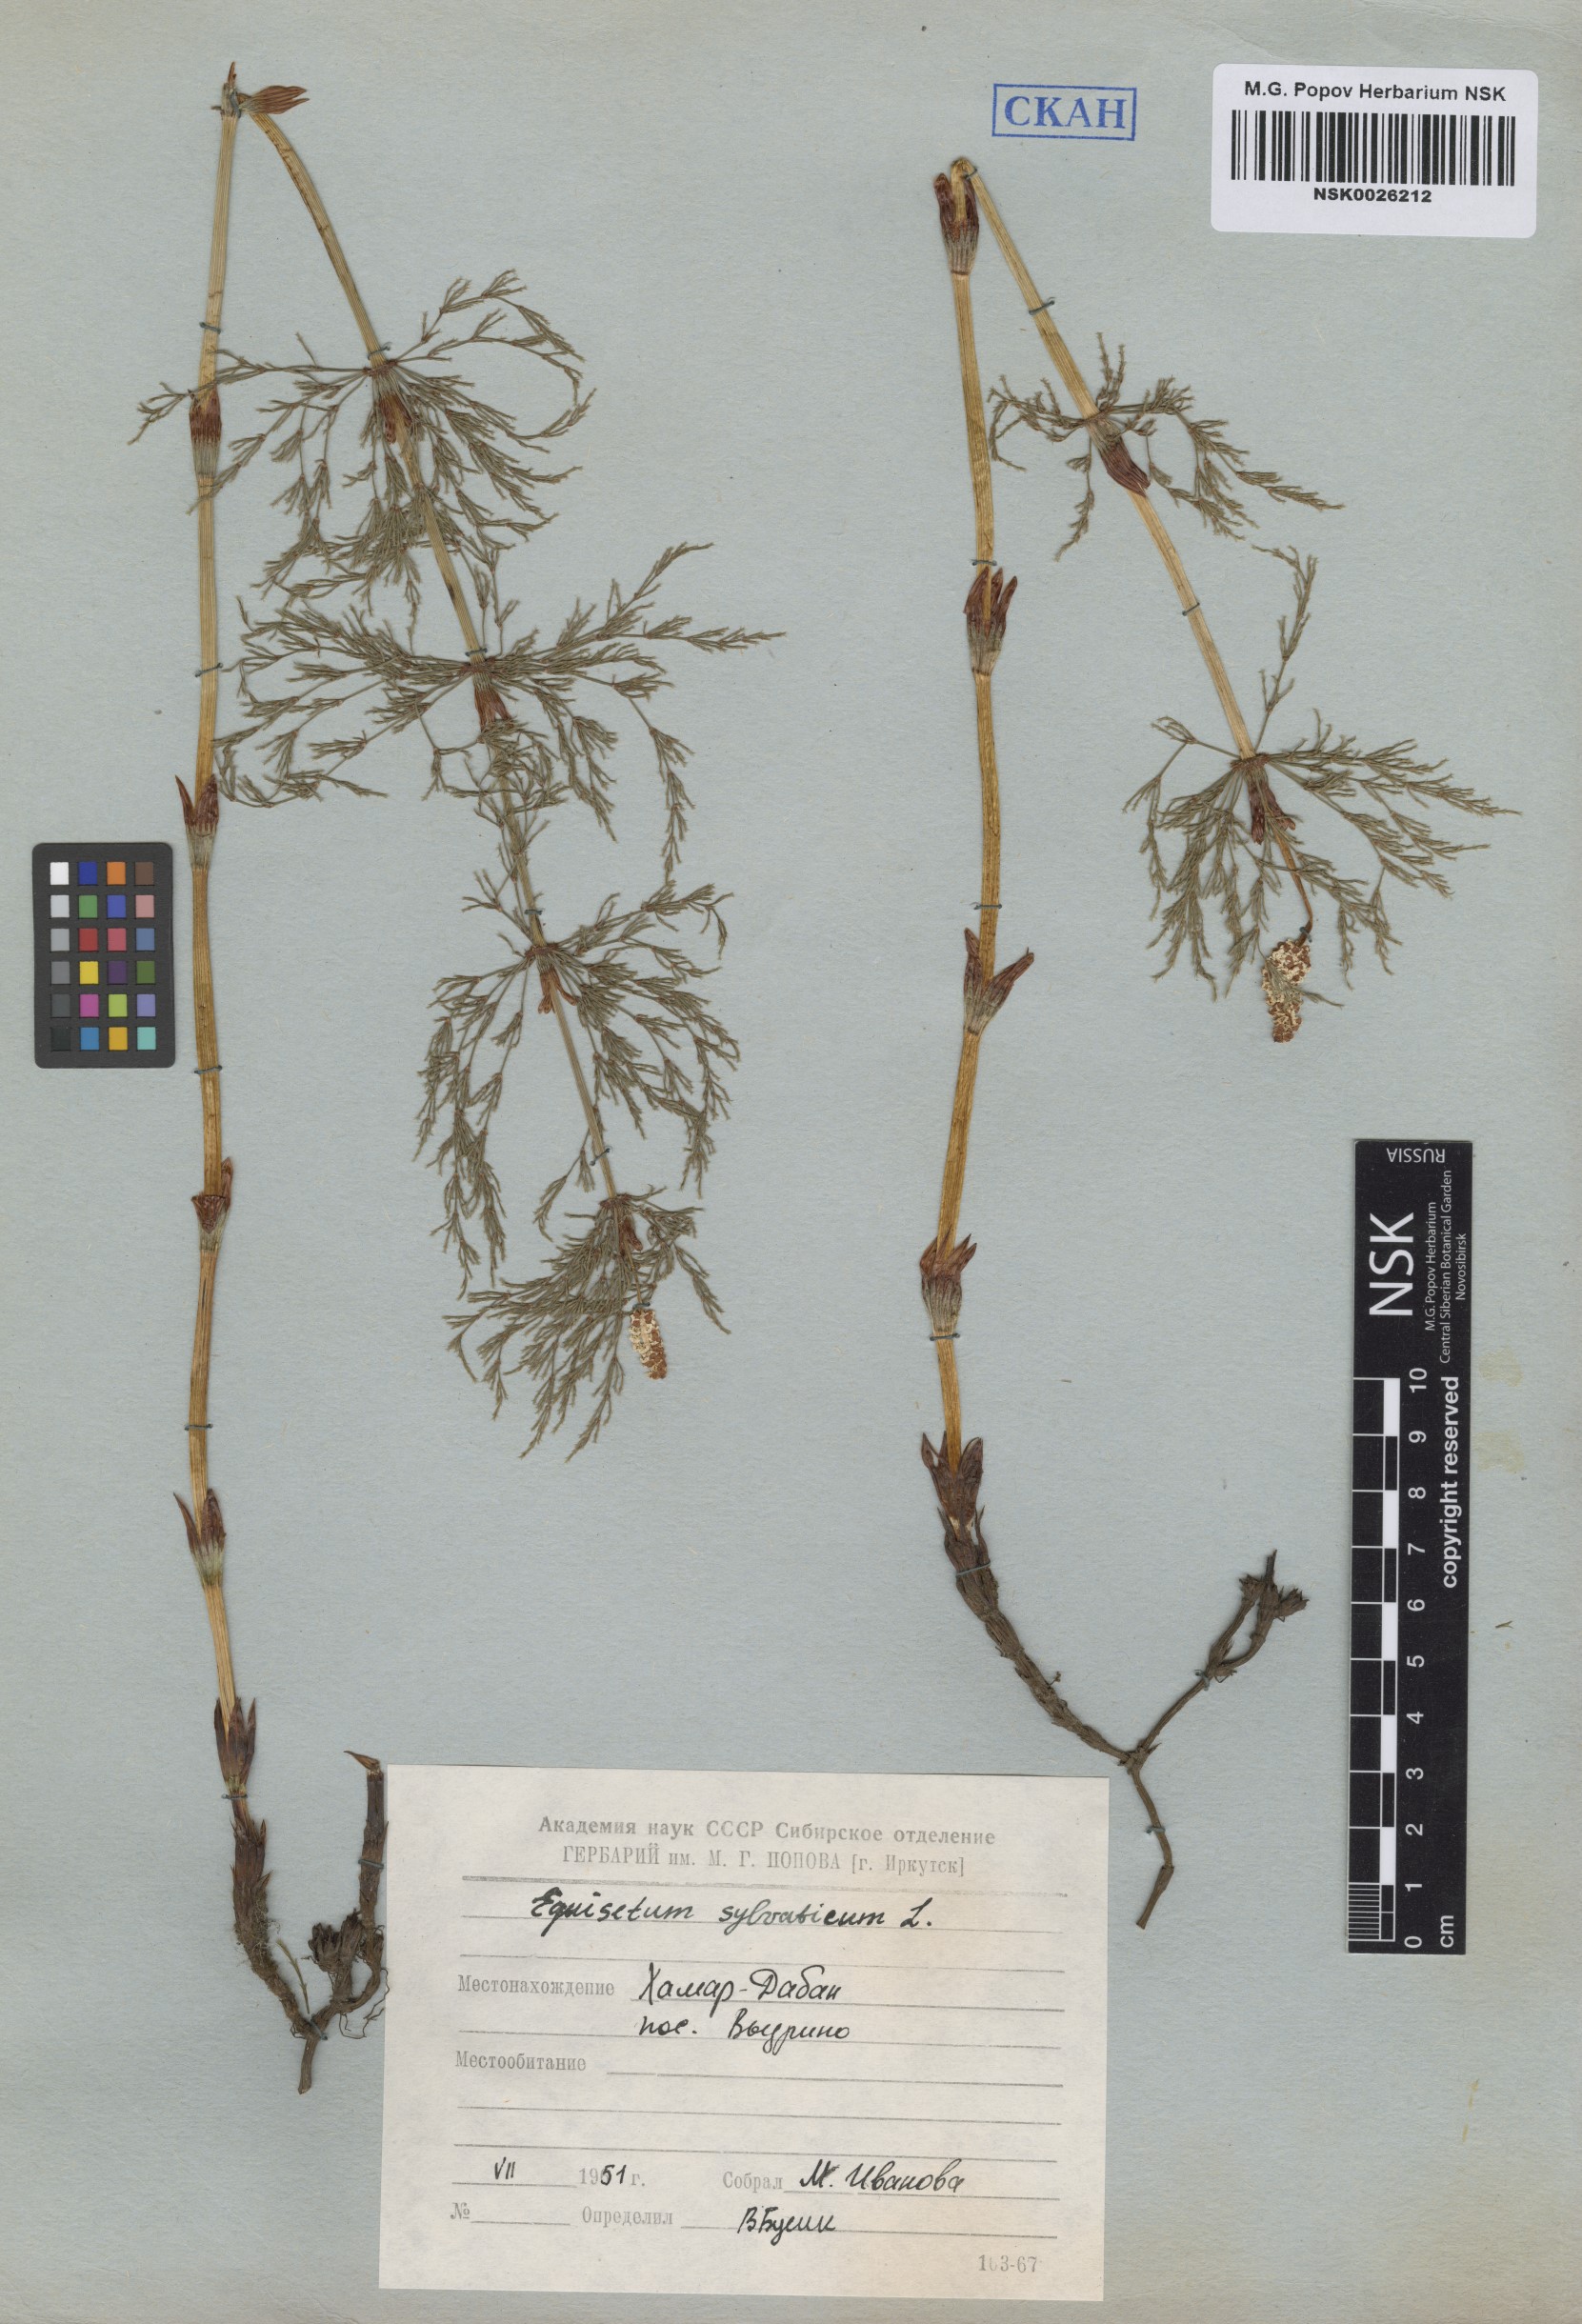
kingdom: Plantae
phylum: Tracheophyta
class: Polypodiopsida
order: Equisetales
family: Equisetaceae
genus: Equisetum
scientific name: Equisetum sylvaticum
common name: Wood horsetail
